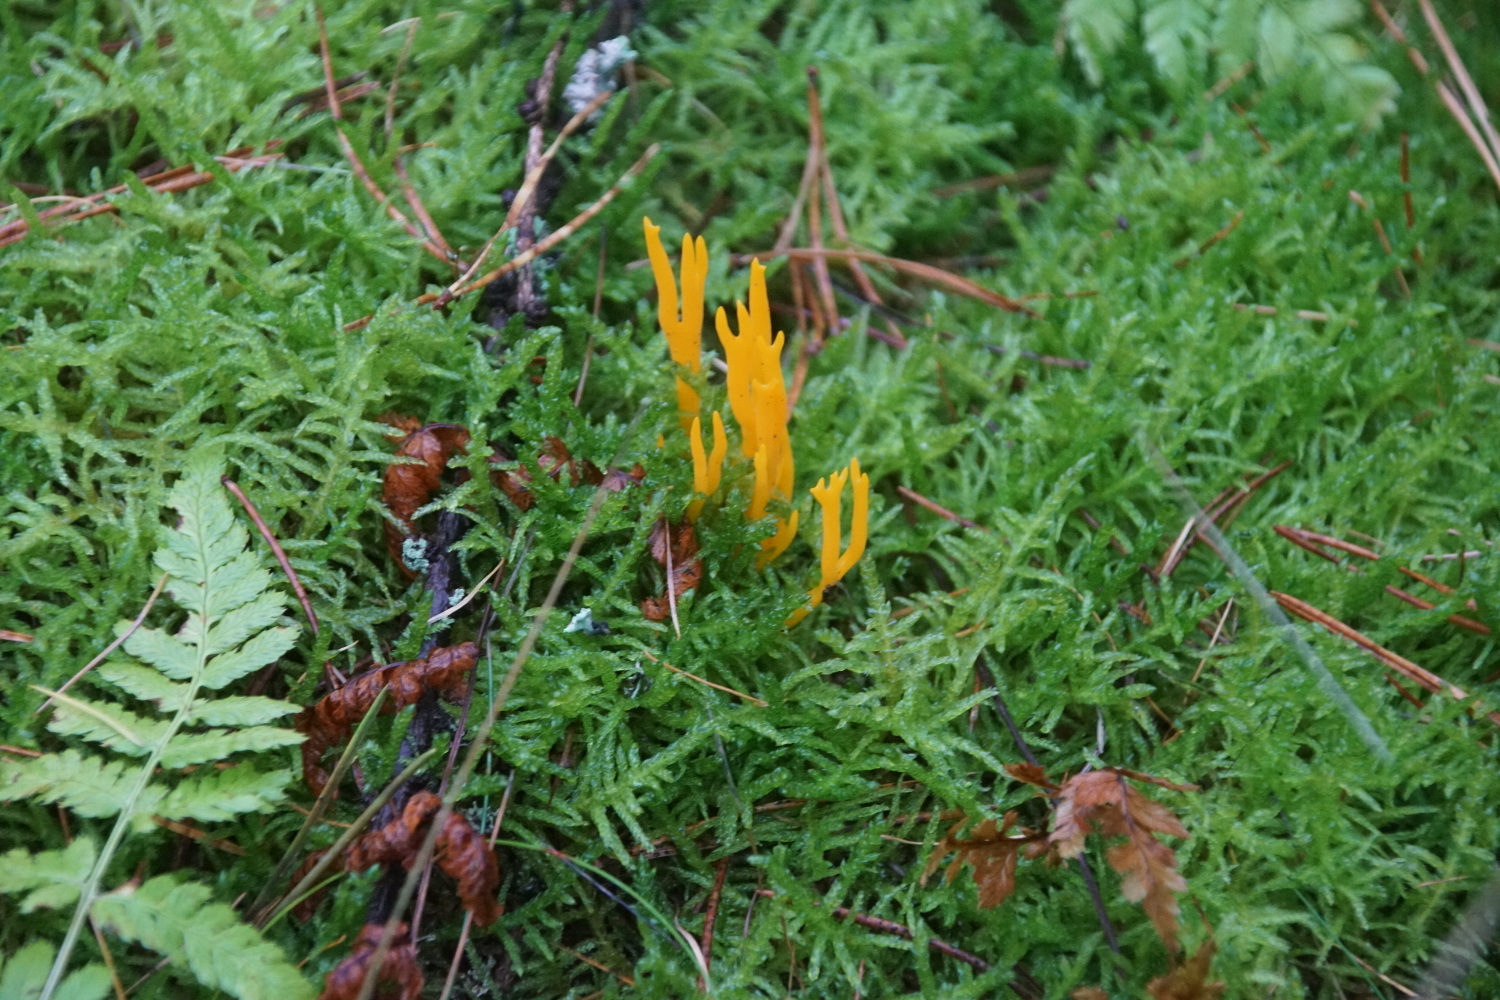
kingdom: Fungi
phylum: Basidiomycota
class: Dacrymycetes
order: Dacrymycetales
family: Dacrymycetaceae
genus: Calocera
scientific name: Calocera viscosa
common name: almindelig guldgaffel
